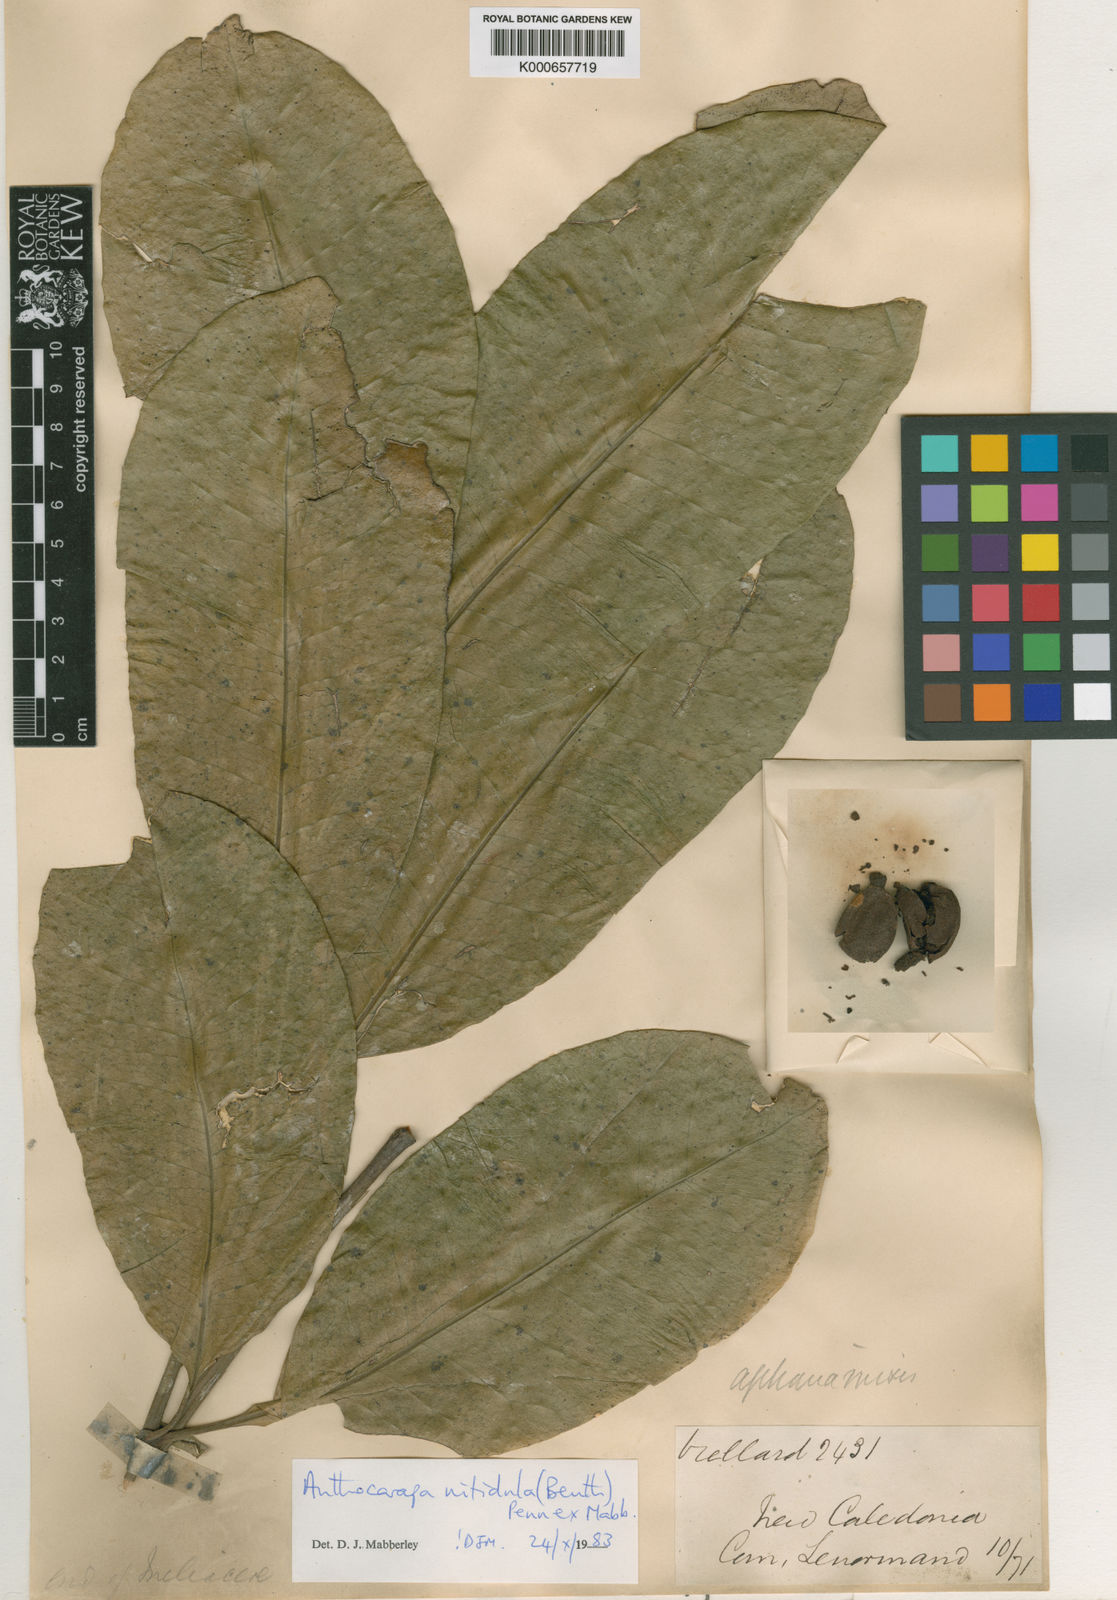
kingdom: Plantae
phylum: Tracheophyta
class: Magnoliopsida
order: Sapindales
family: Meliaceae
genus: Anthocarapa
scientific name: Anthocarapa nitidula
